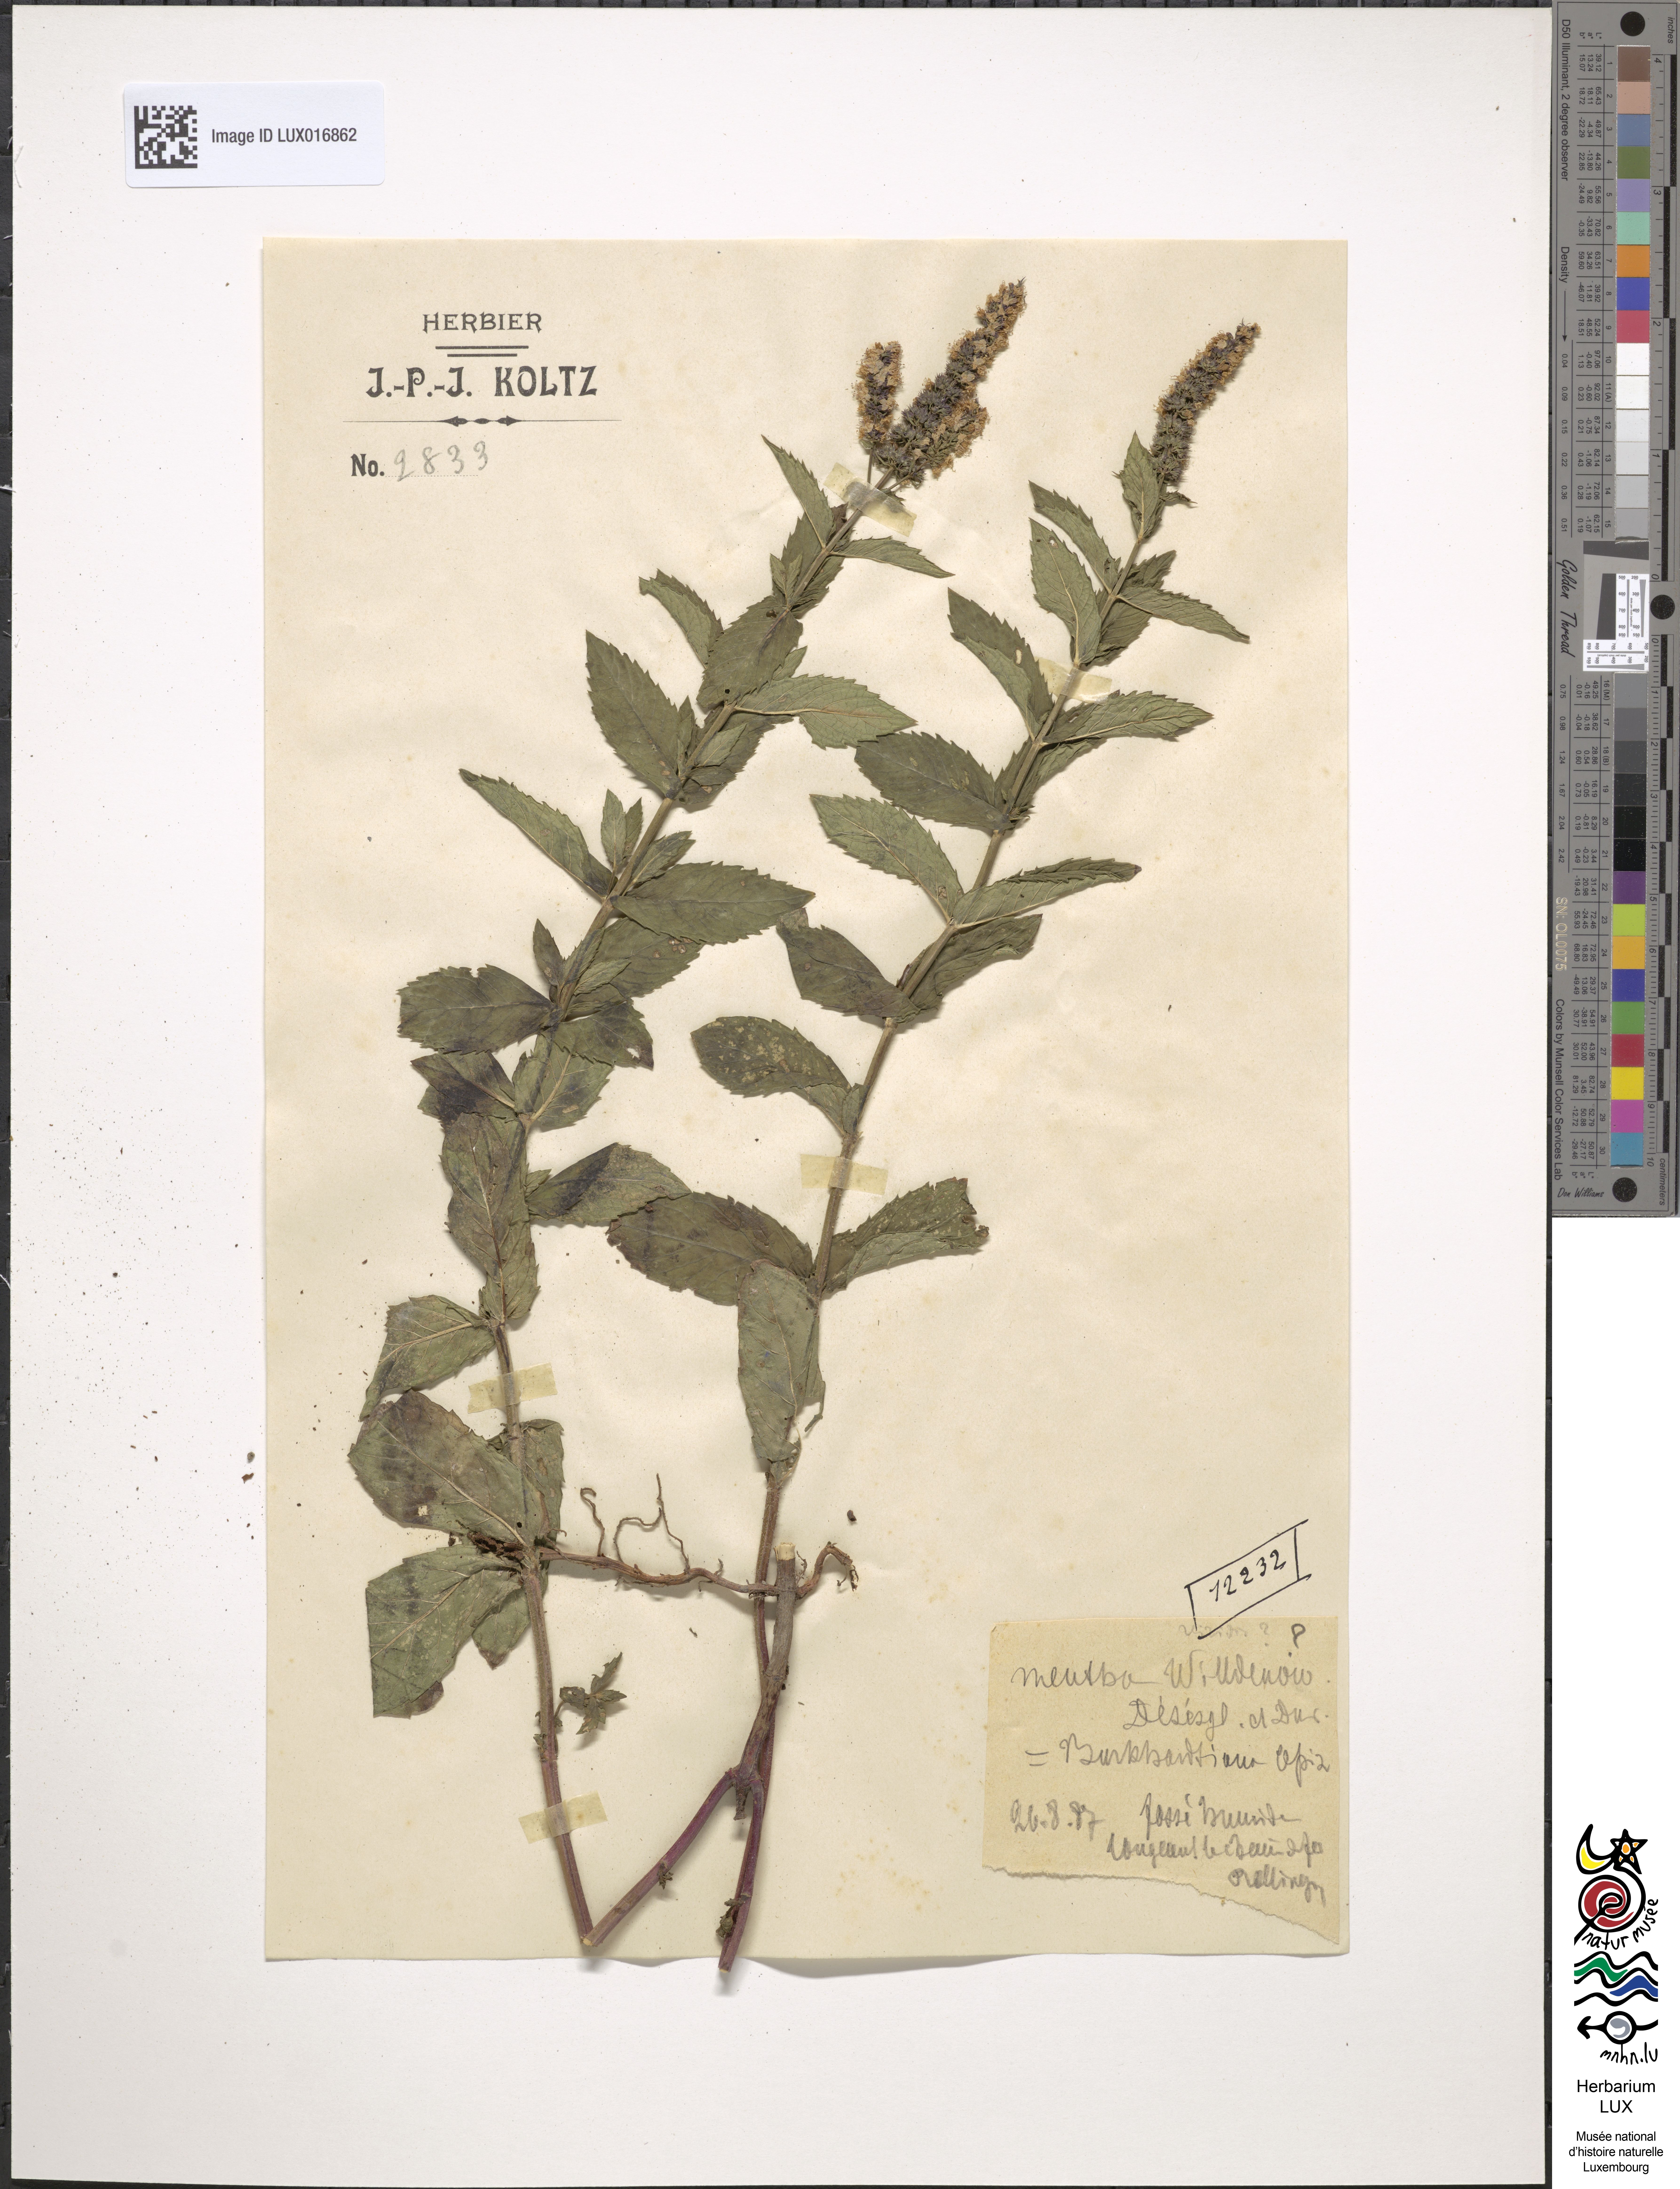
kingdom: Plantae
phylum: Tracheophyta
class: Magnoliopsida
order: Lamiales
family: Lamiaceae
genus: Mentha
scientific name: Mentha rotundifolia
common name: Bigleaf mint
